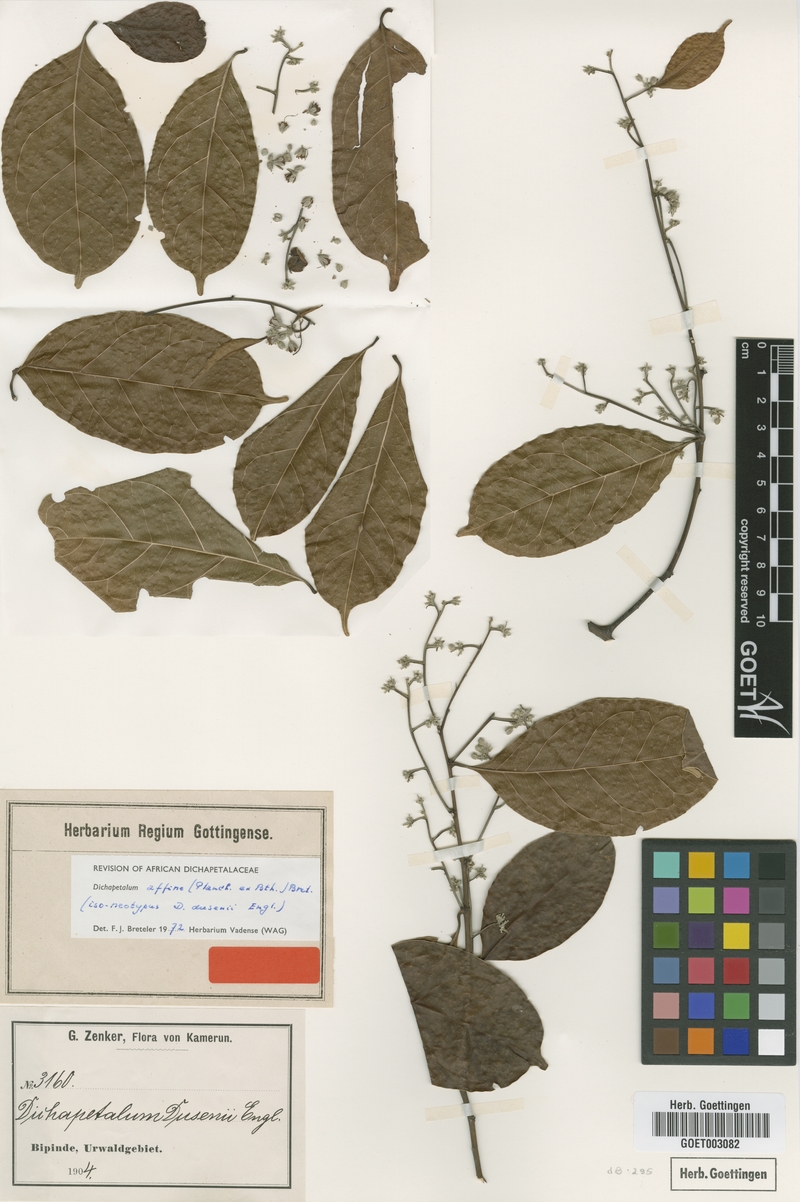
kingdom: Plantae
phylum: Tracheophyta
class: Magnoliopsida
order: Malpighiales
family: Dichapetalaceae
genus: Dichapetalum
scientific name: Dichapetalum affine
